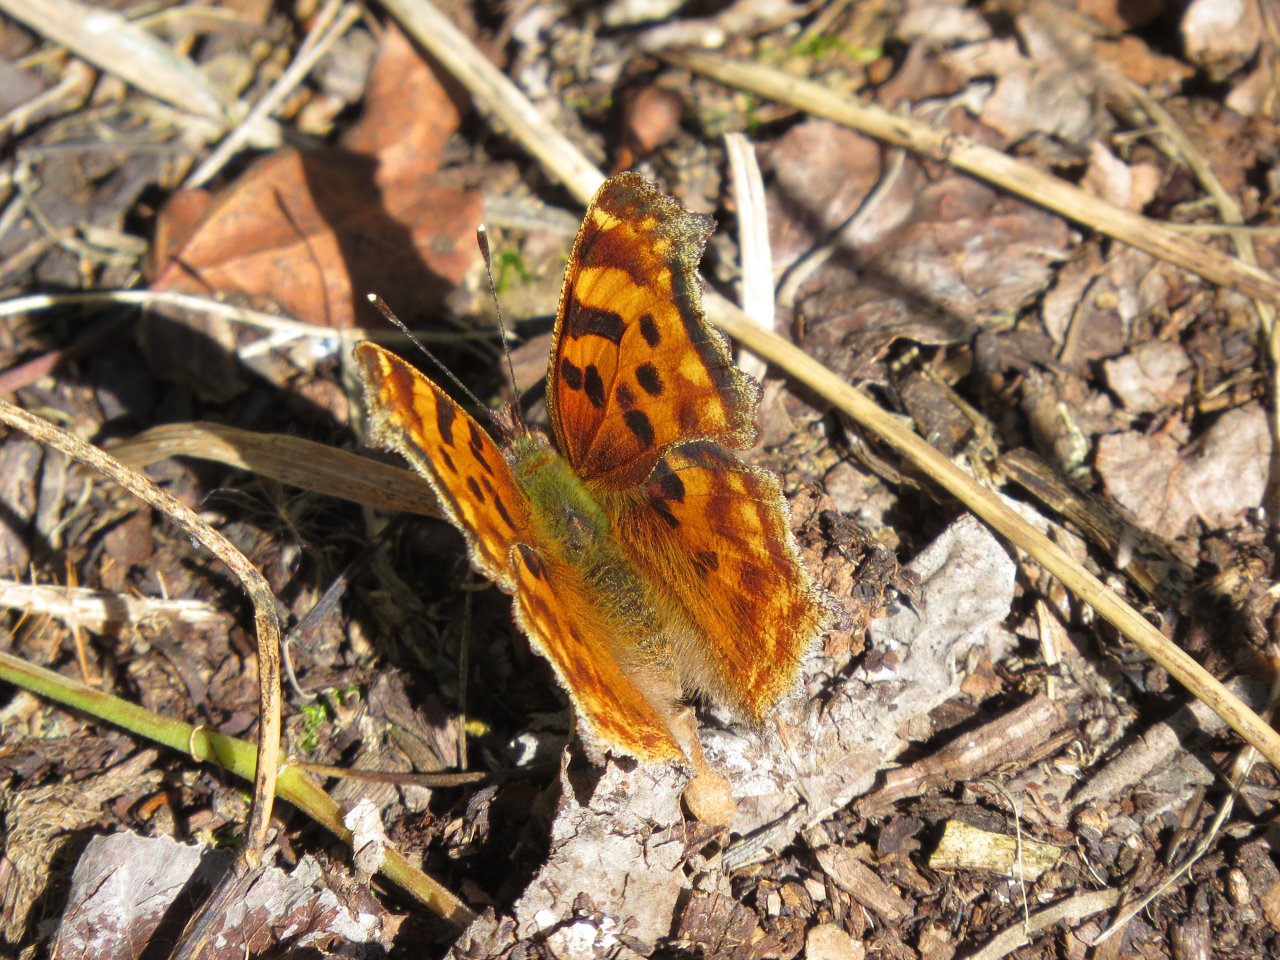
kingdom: Animalia
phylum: Arthropoda
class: Insecta
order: Lepidoptera
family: Nymphalidae
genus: Polygonia
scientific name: Polygonia satyrus
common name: Satyr Comma
